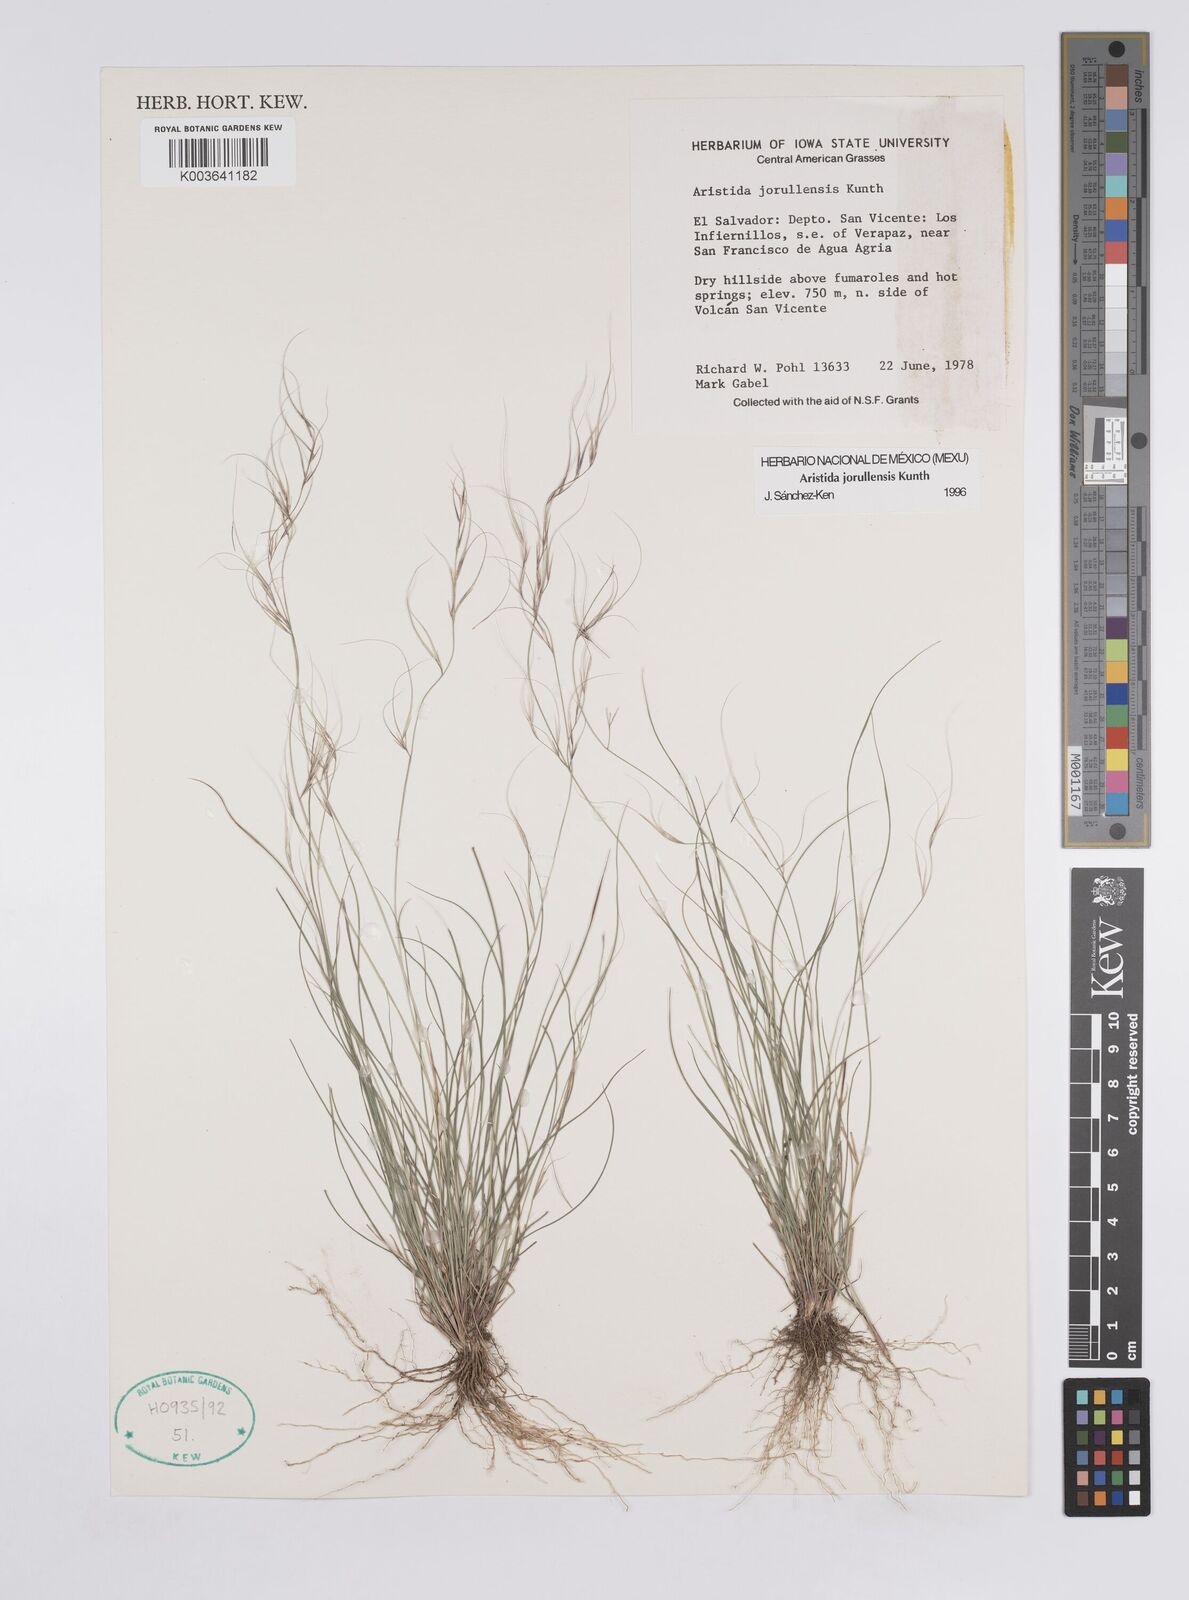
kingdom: Plantae
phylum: Tracheophyta
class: Liliopsida
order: Poales
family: Poaceae
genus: Aristida
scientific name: Aristida jorullensis
